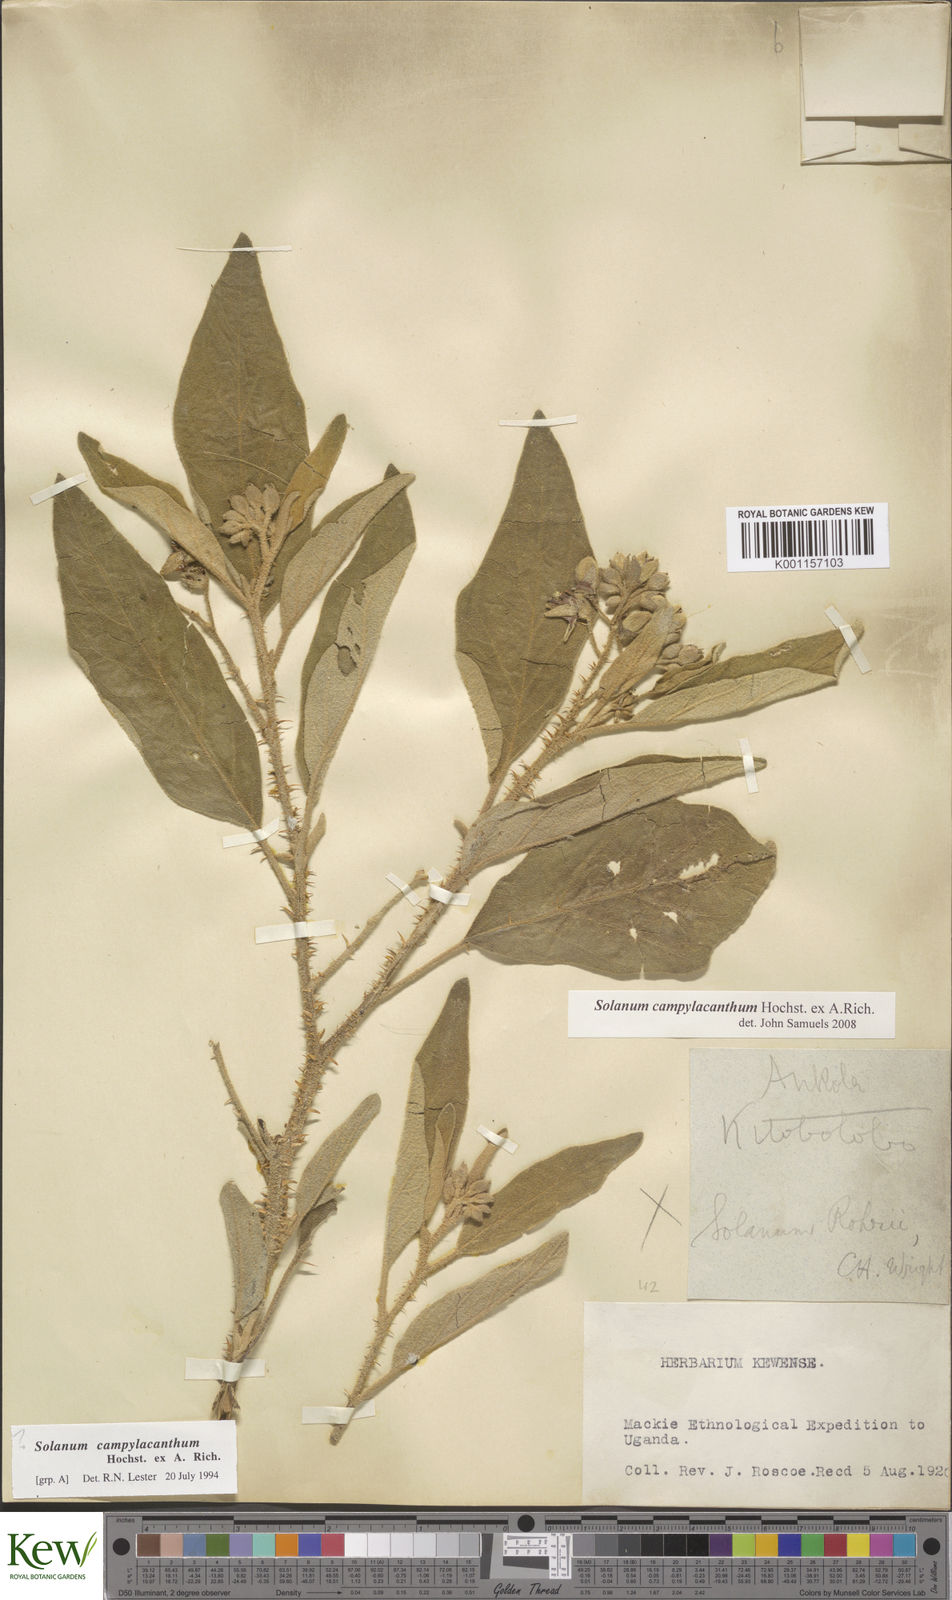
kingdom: Plantae
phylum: Tracheophyta
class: Magnoliopsida
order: Solanales
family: Solanaceae
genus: Solanum
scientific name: Solanum campylacanthum
